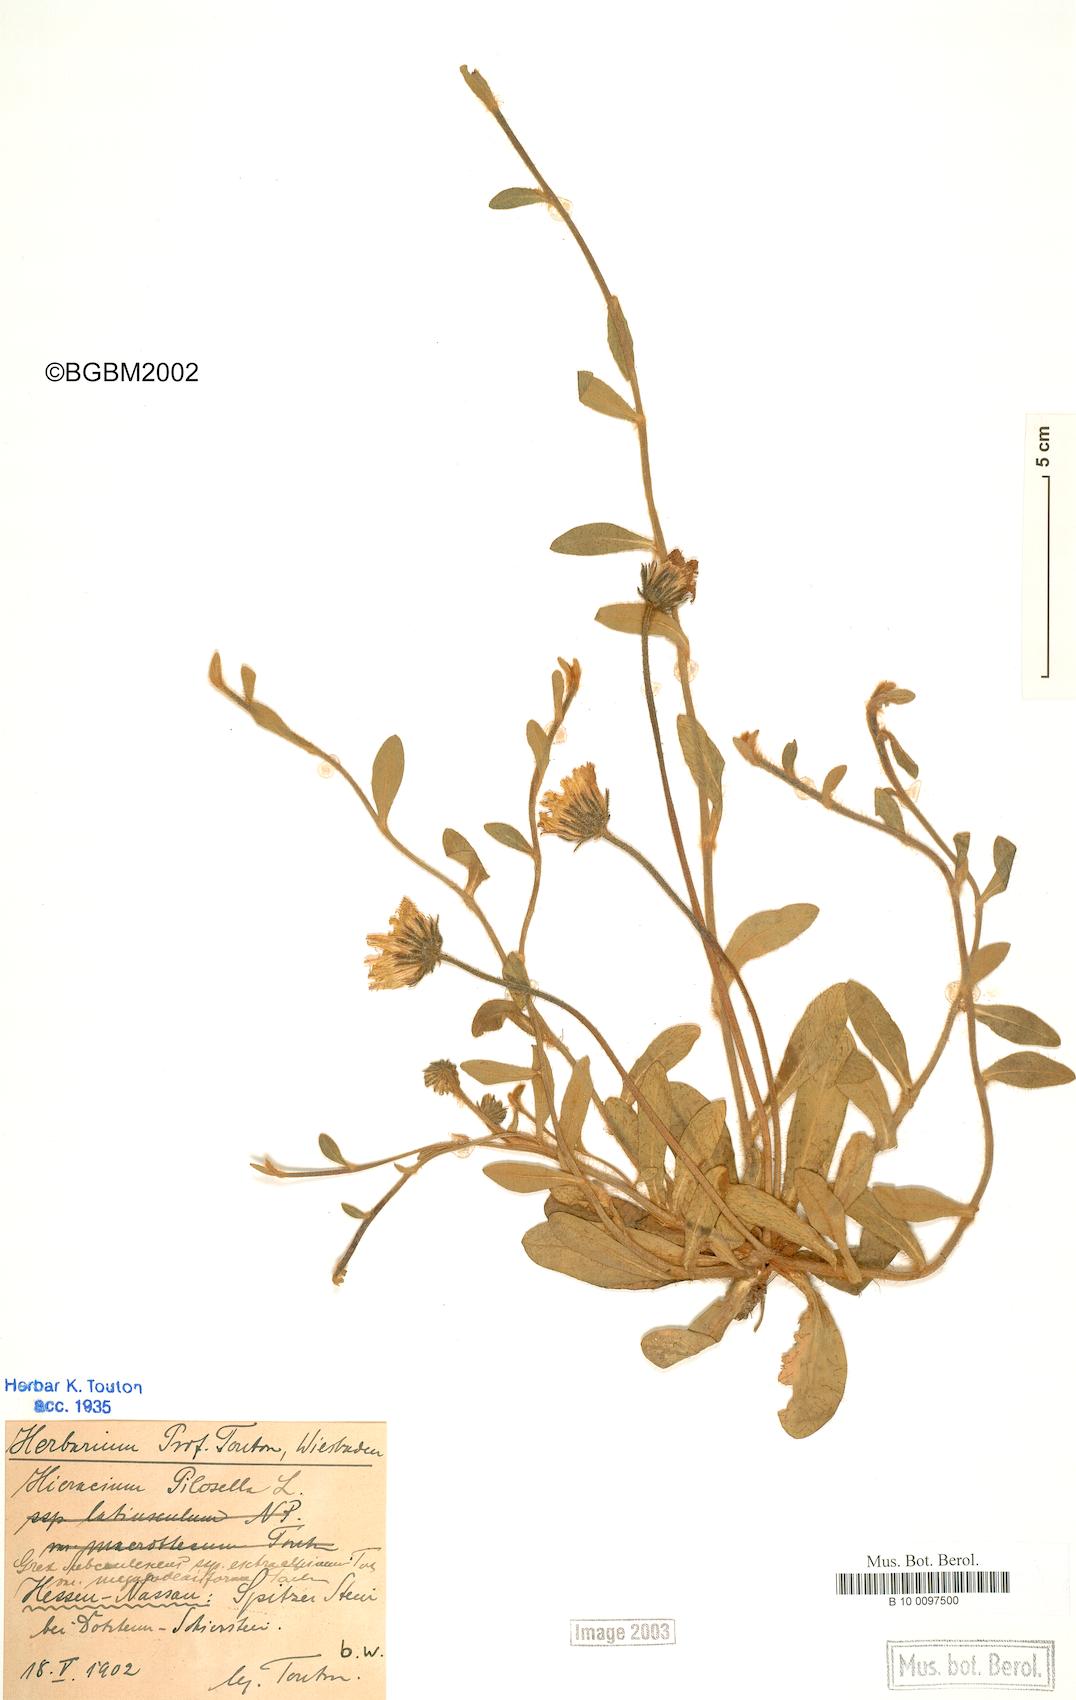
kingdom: Plantae
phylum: Tracheophyta
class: Magnoliopsida
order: Asterales
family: Asteraceae
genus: Pilosella
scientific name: Pilosella officinarum
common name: Mouse-ear hawkweed
